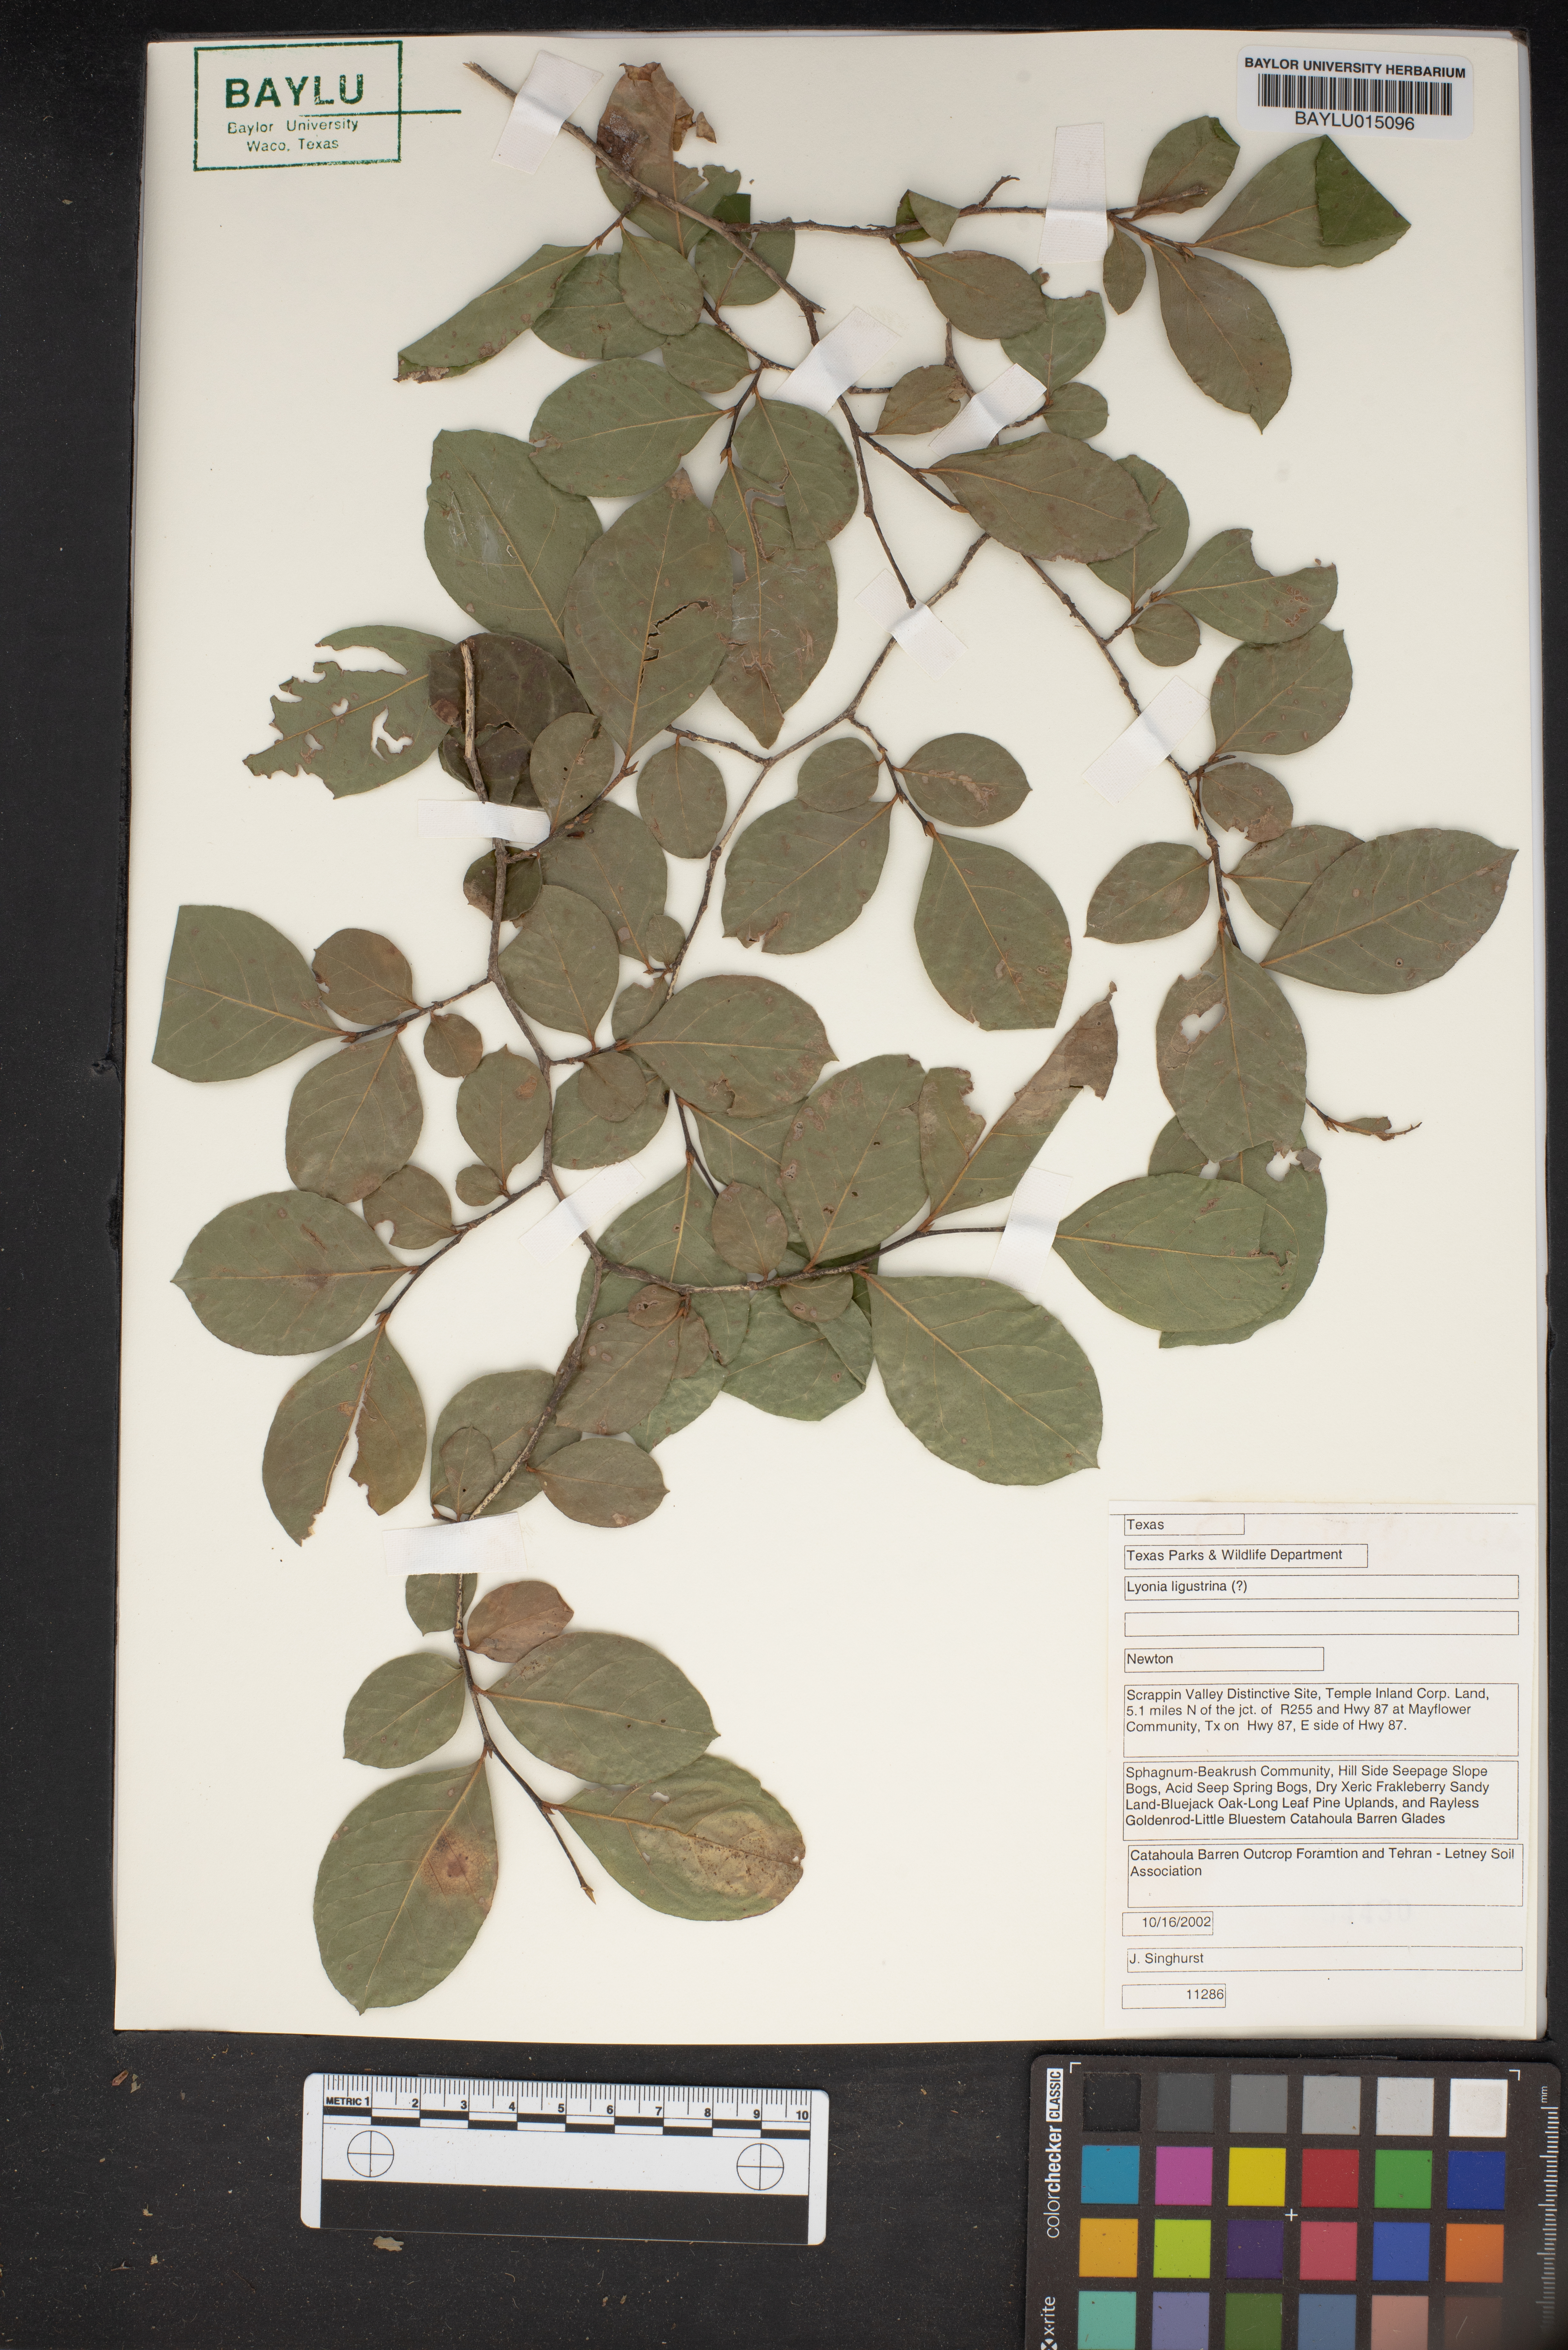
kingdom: Plantae
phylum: Tracheophyta
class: Magnoliopsida
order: Ericales
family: Ericaceae
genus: Lyonia
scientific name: Lyonia ligustrina
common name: Maleberry
